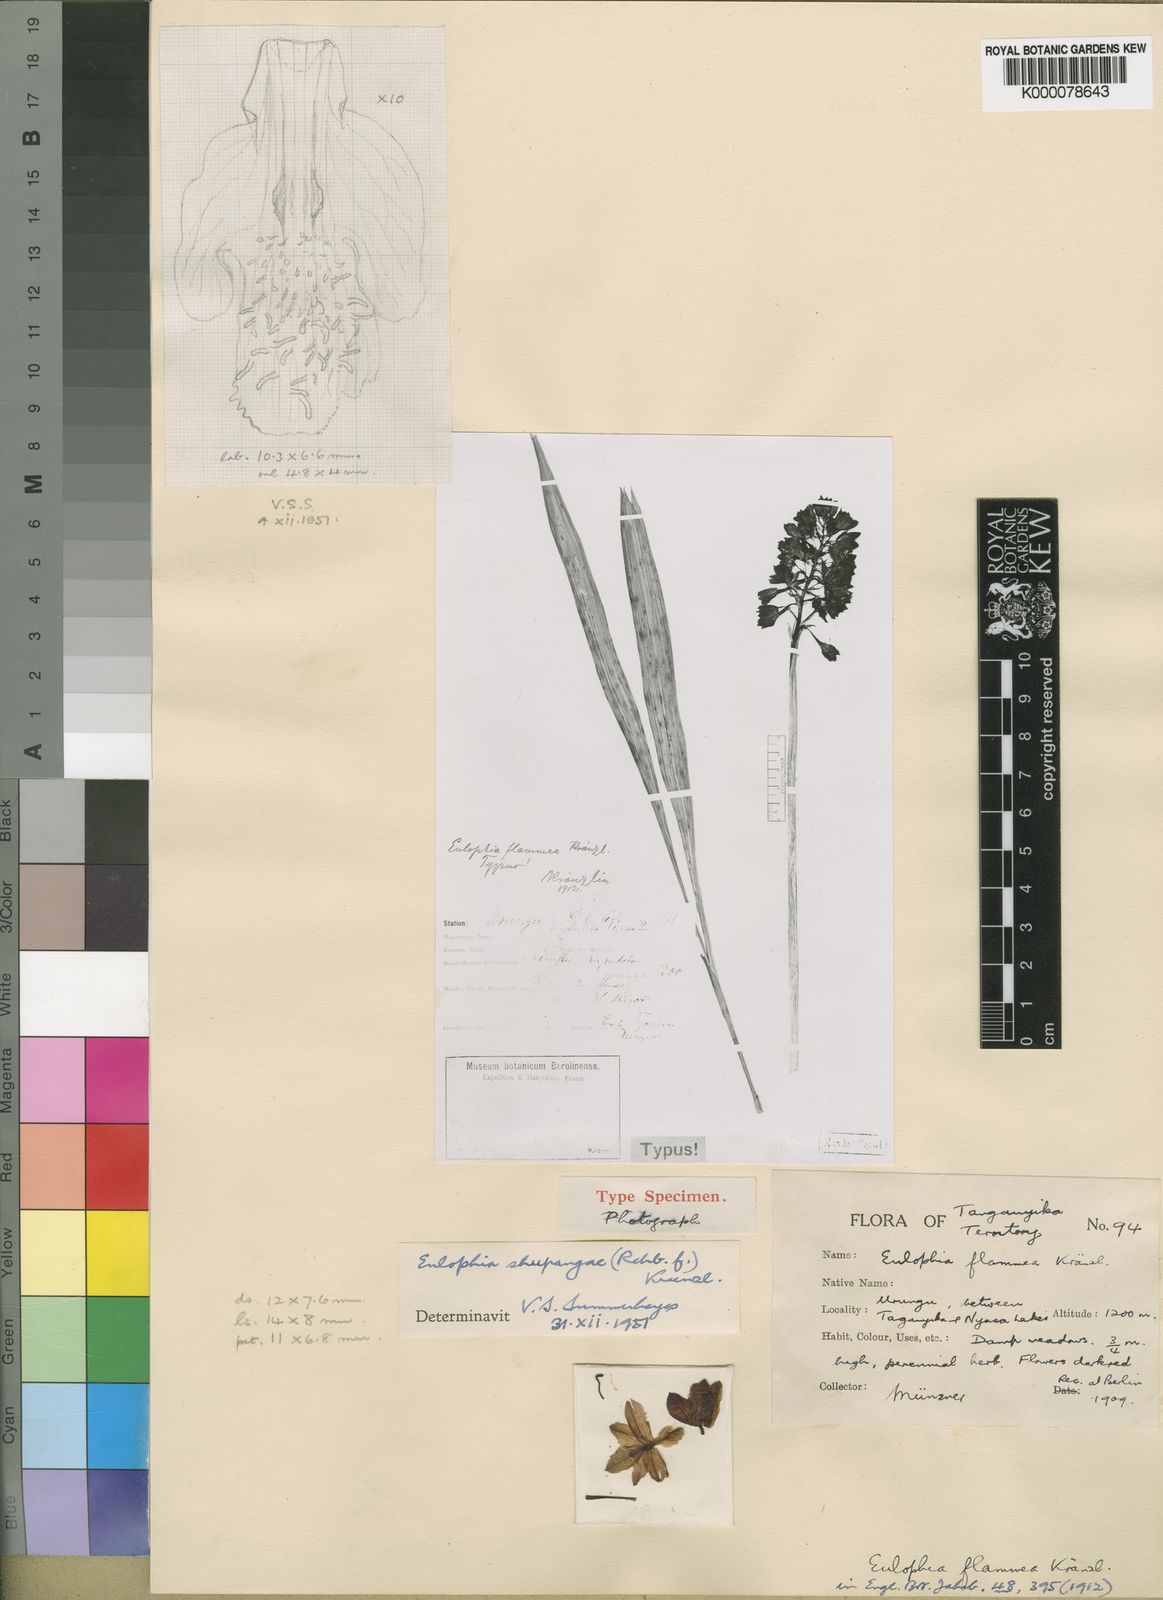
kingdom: Plantae
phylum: Tracheophyta
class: Liliopsida
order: Asparagales
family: Orchidaceae
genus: Eulophia
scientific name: Eulophia odontoglossa
